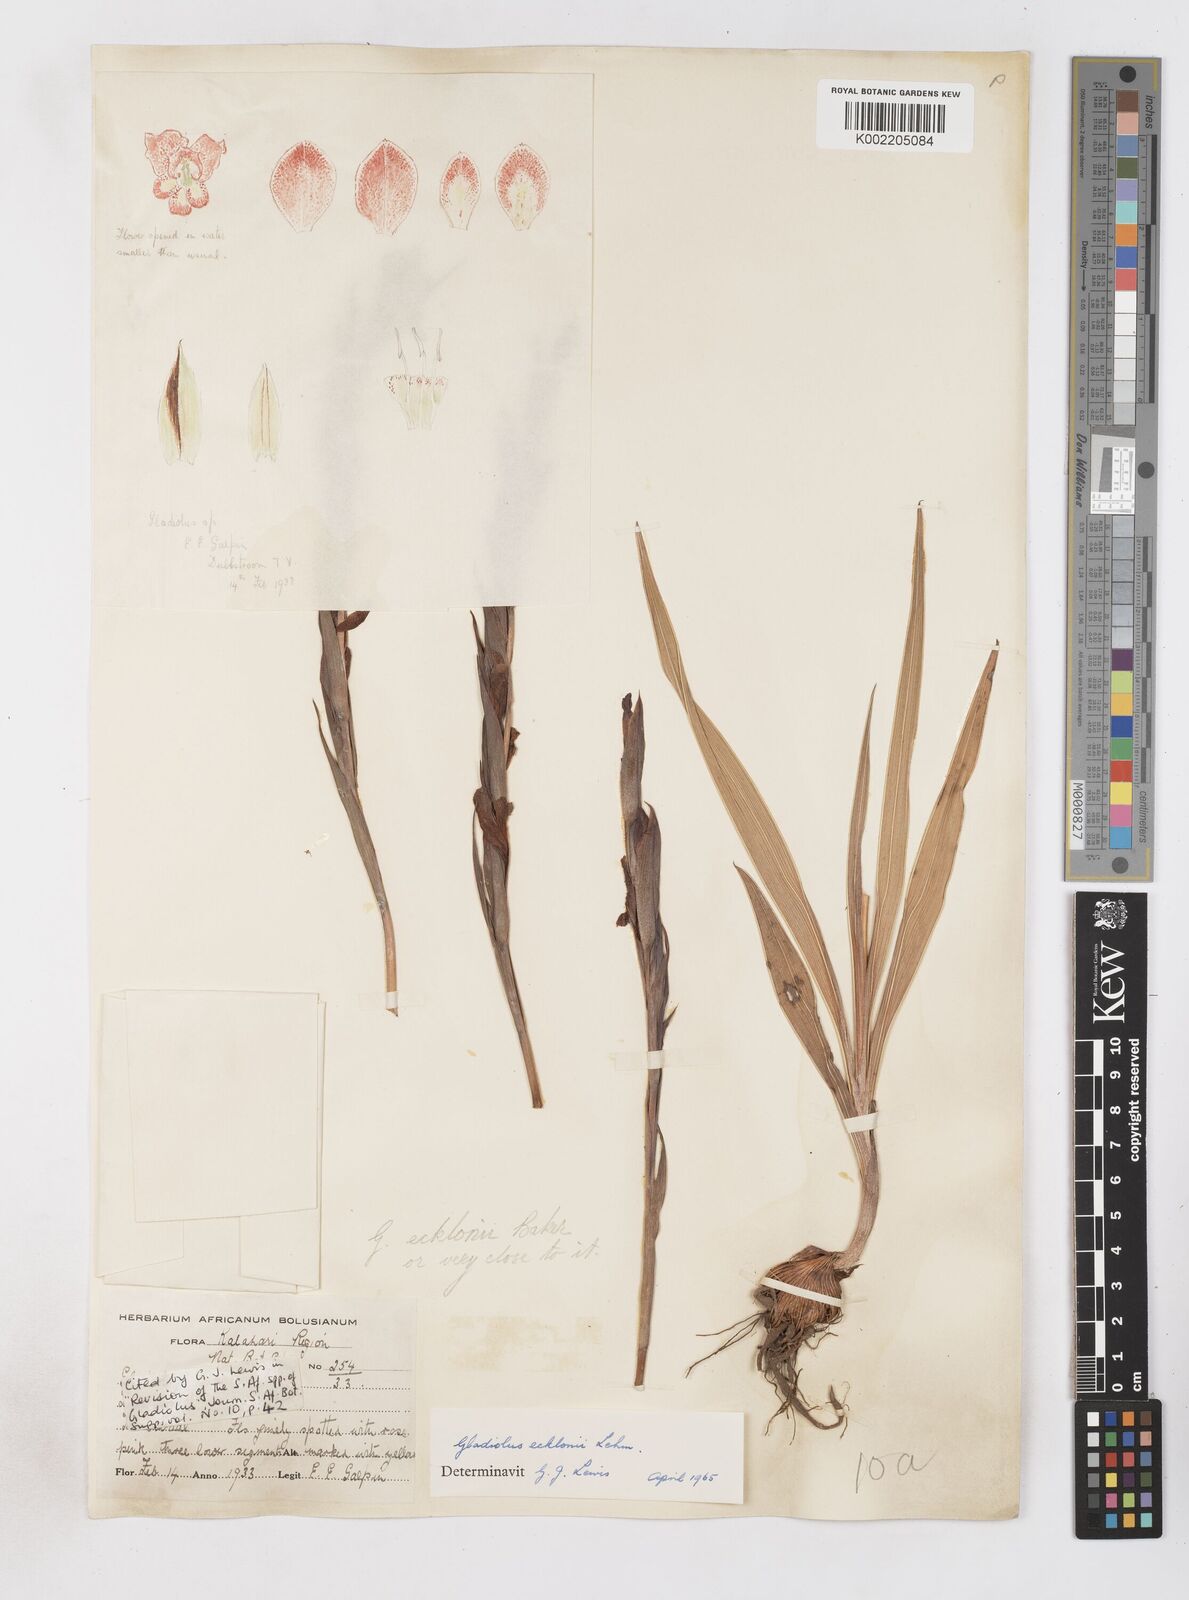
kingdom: Plantae
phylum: Tracheophyta
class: Liliopsida
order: Asparagales
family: Iridaceae
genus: Gladiolus
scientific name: Gladiolus ecklonii
